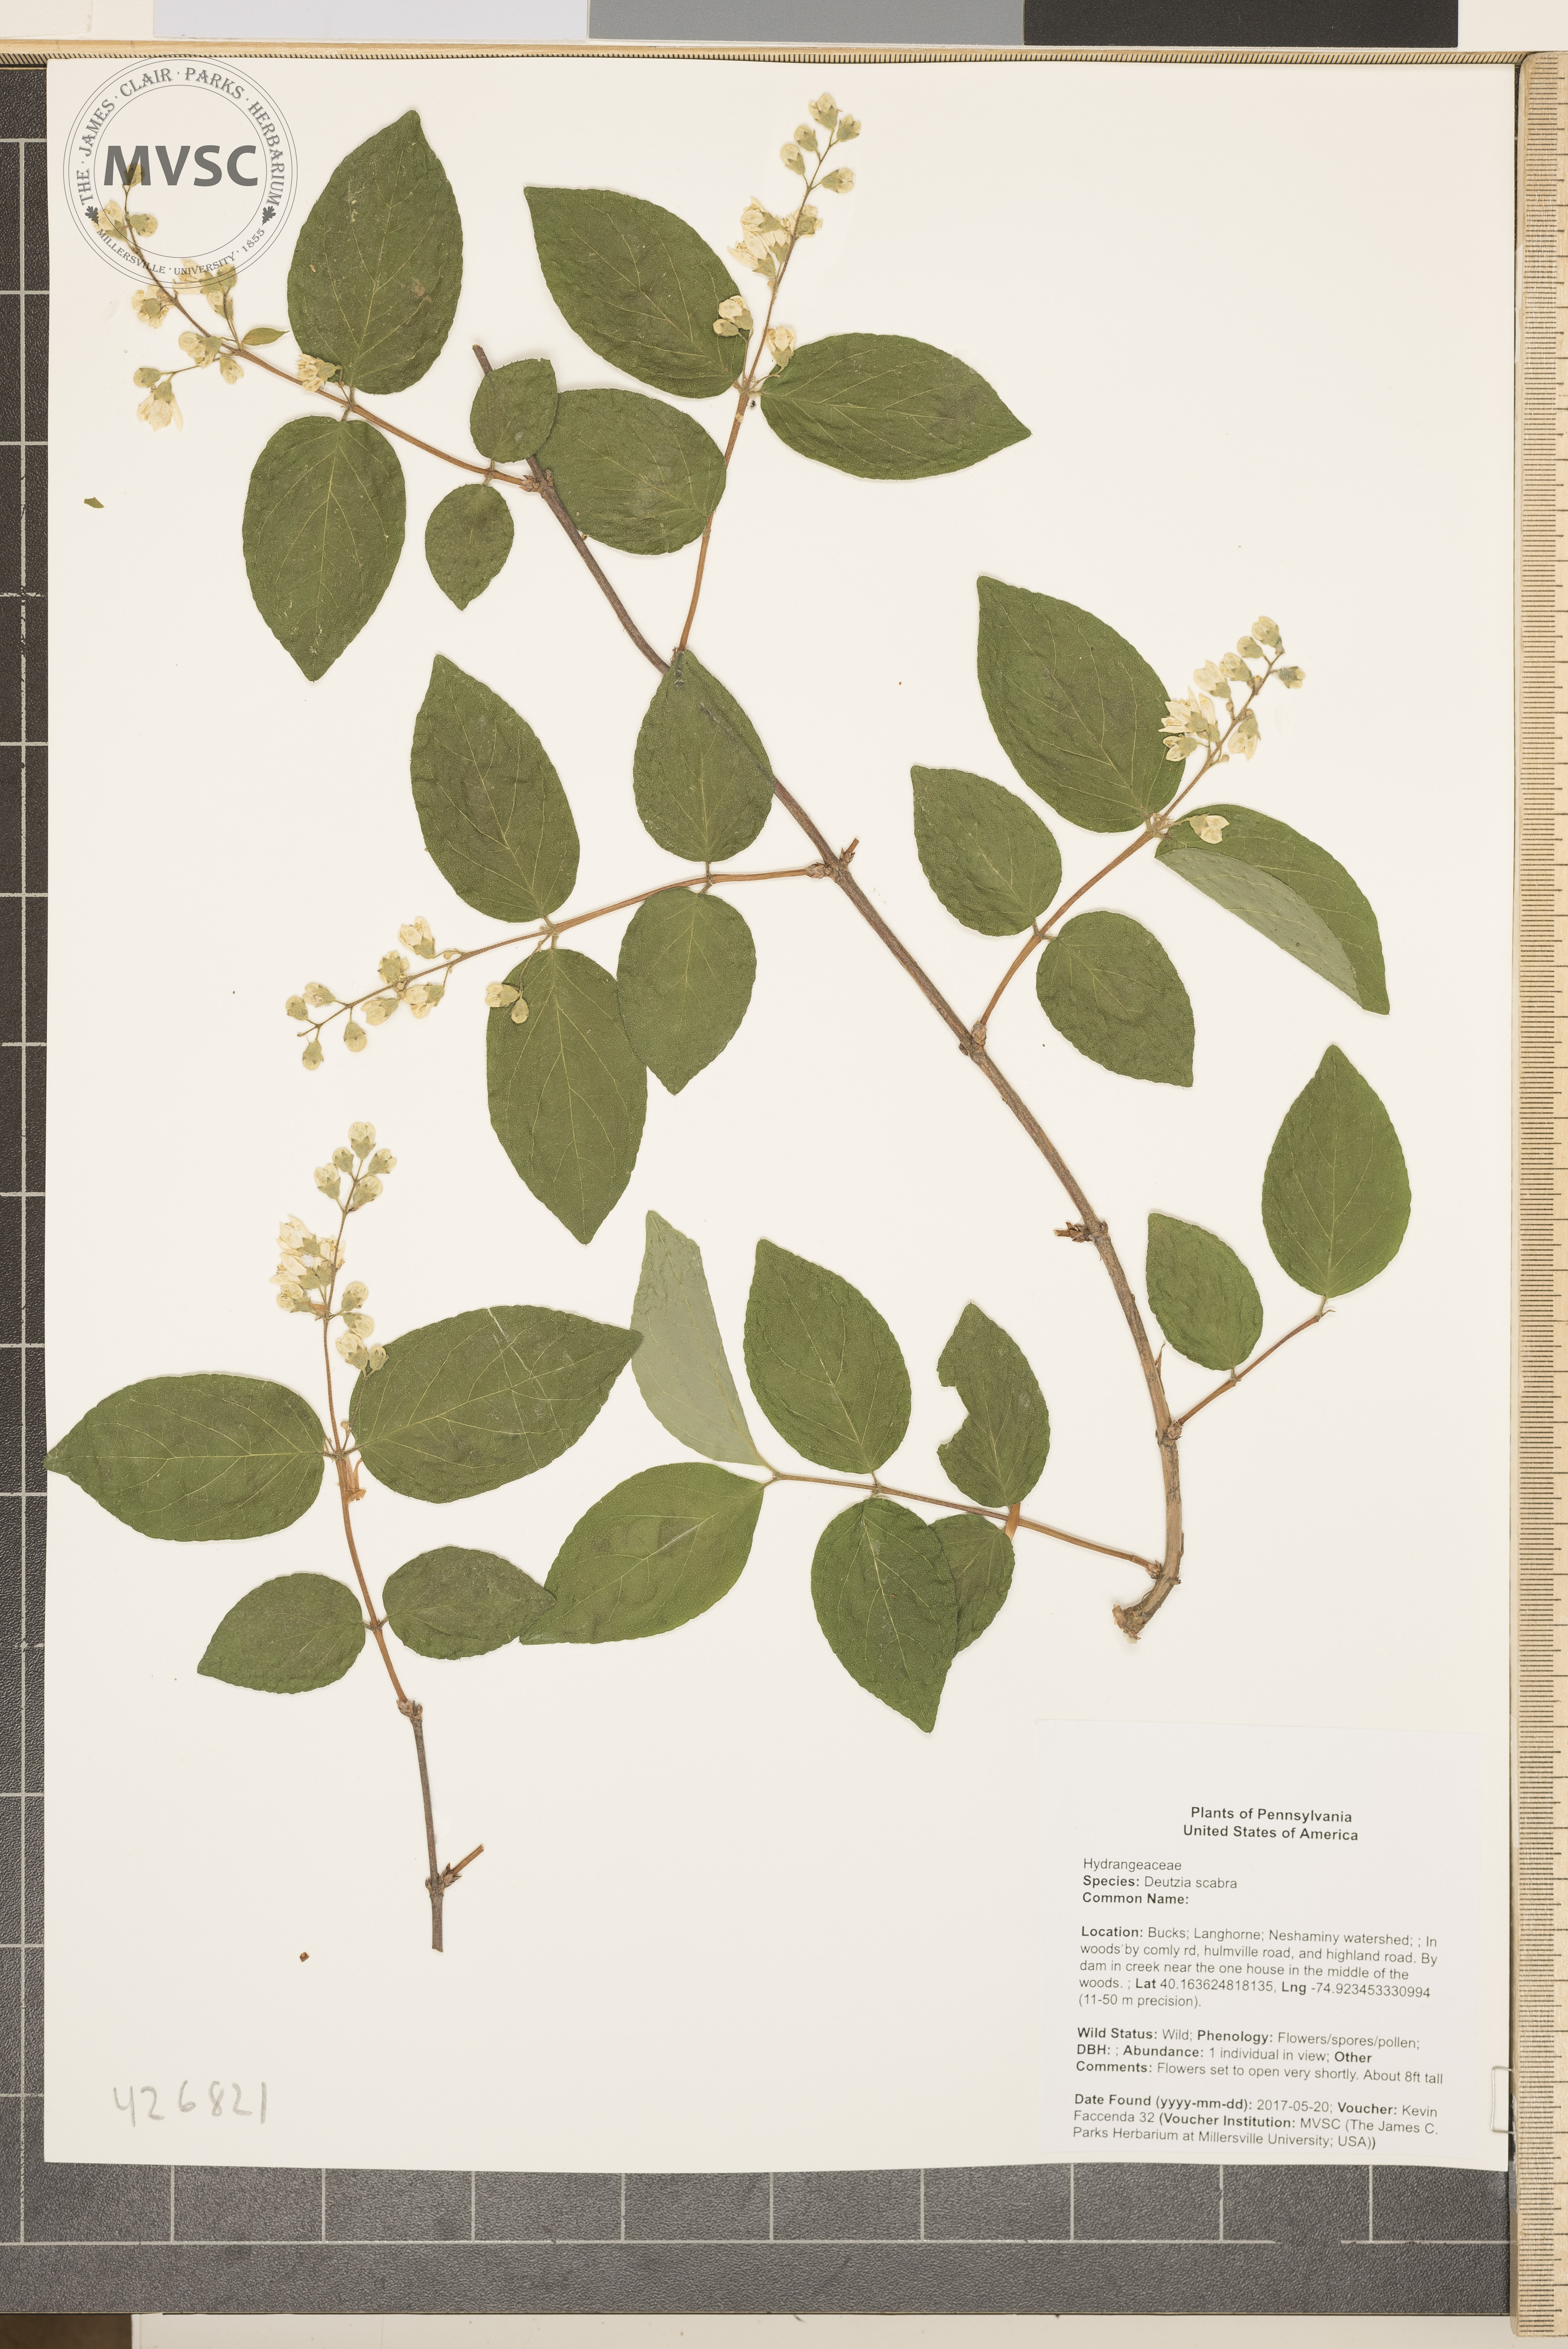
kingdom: Plantae
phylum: Tracheophyta
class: Magnoliopsida
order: Cornales
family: Hydrangeaceae
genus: Deutzia
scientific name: Deutzia scabra
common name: Deutzia
